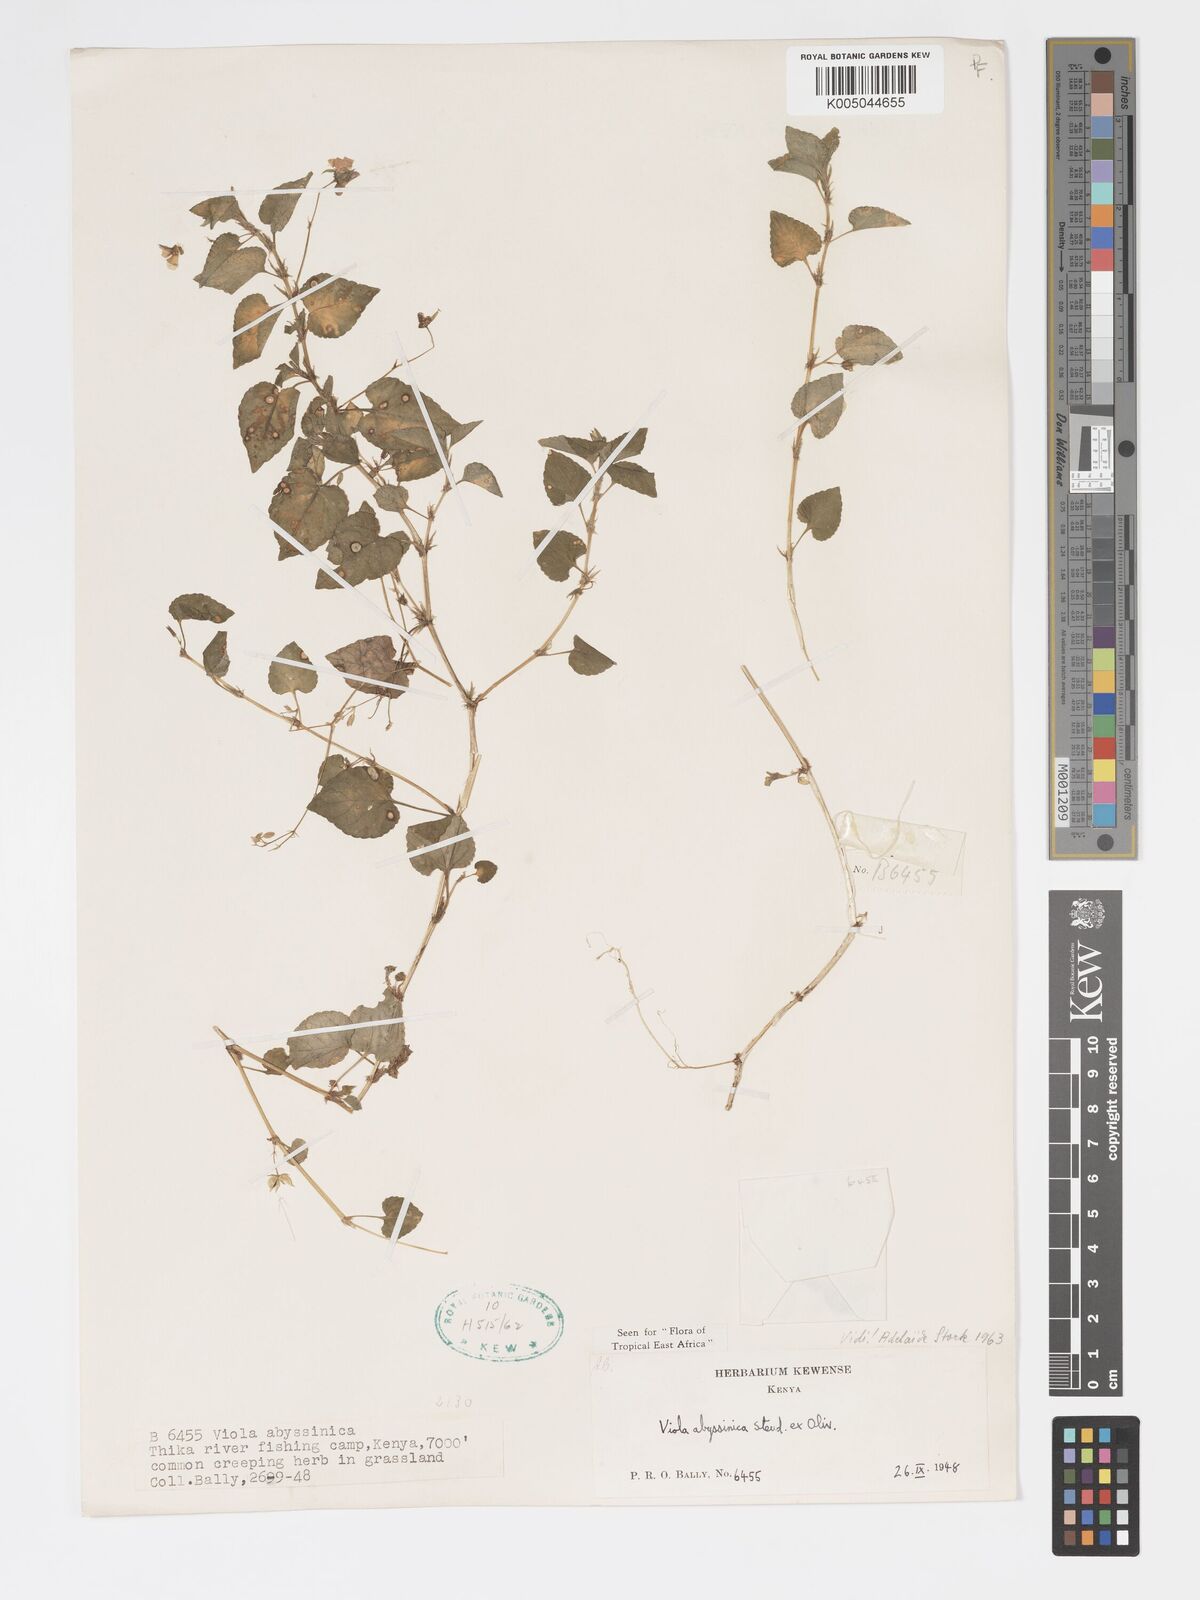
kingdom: Plantae
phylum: Tracheophyta
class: Magnoliopsida
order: Malpighiales
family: Violaceae
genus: Viola
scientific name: Viola abyssinica
